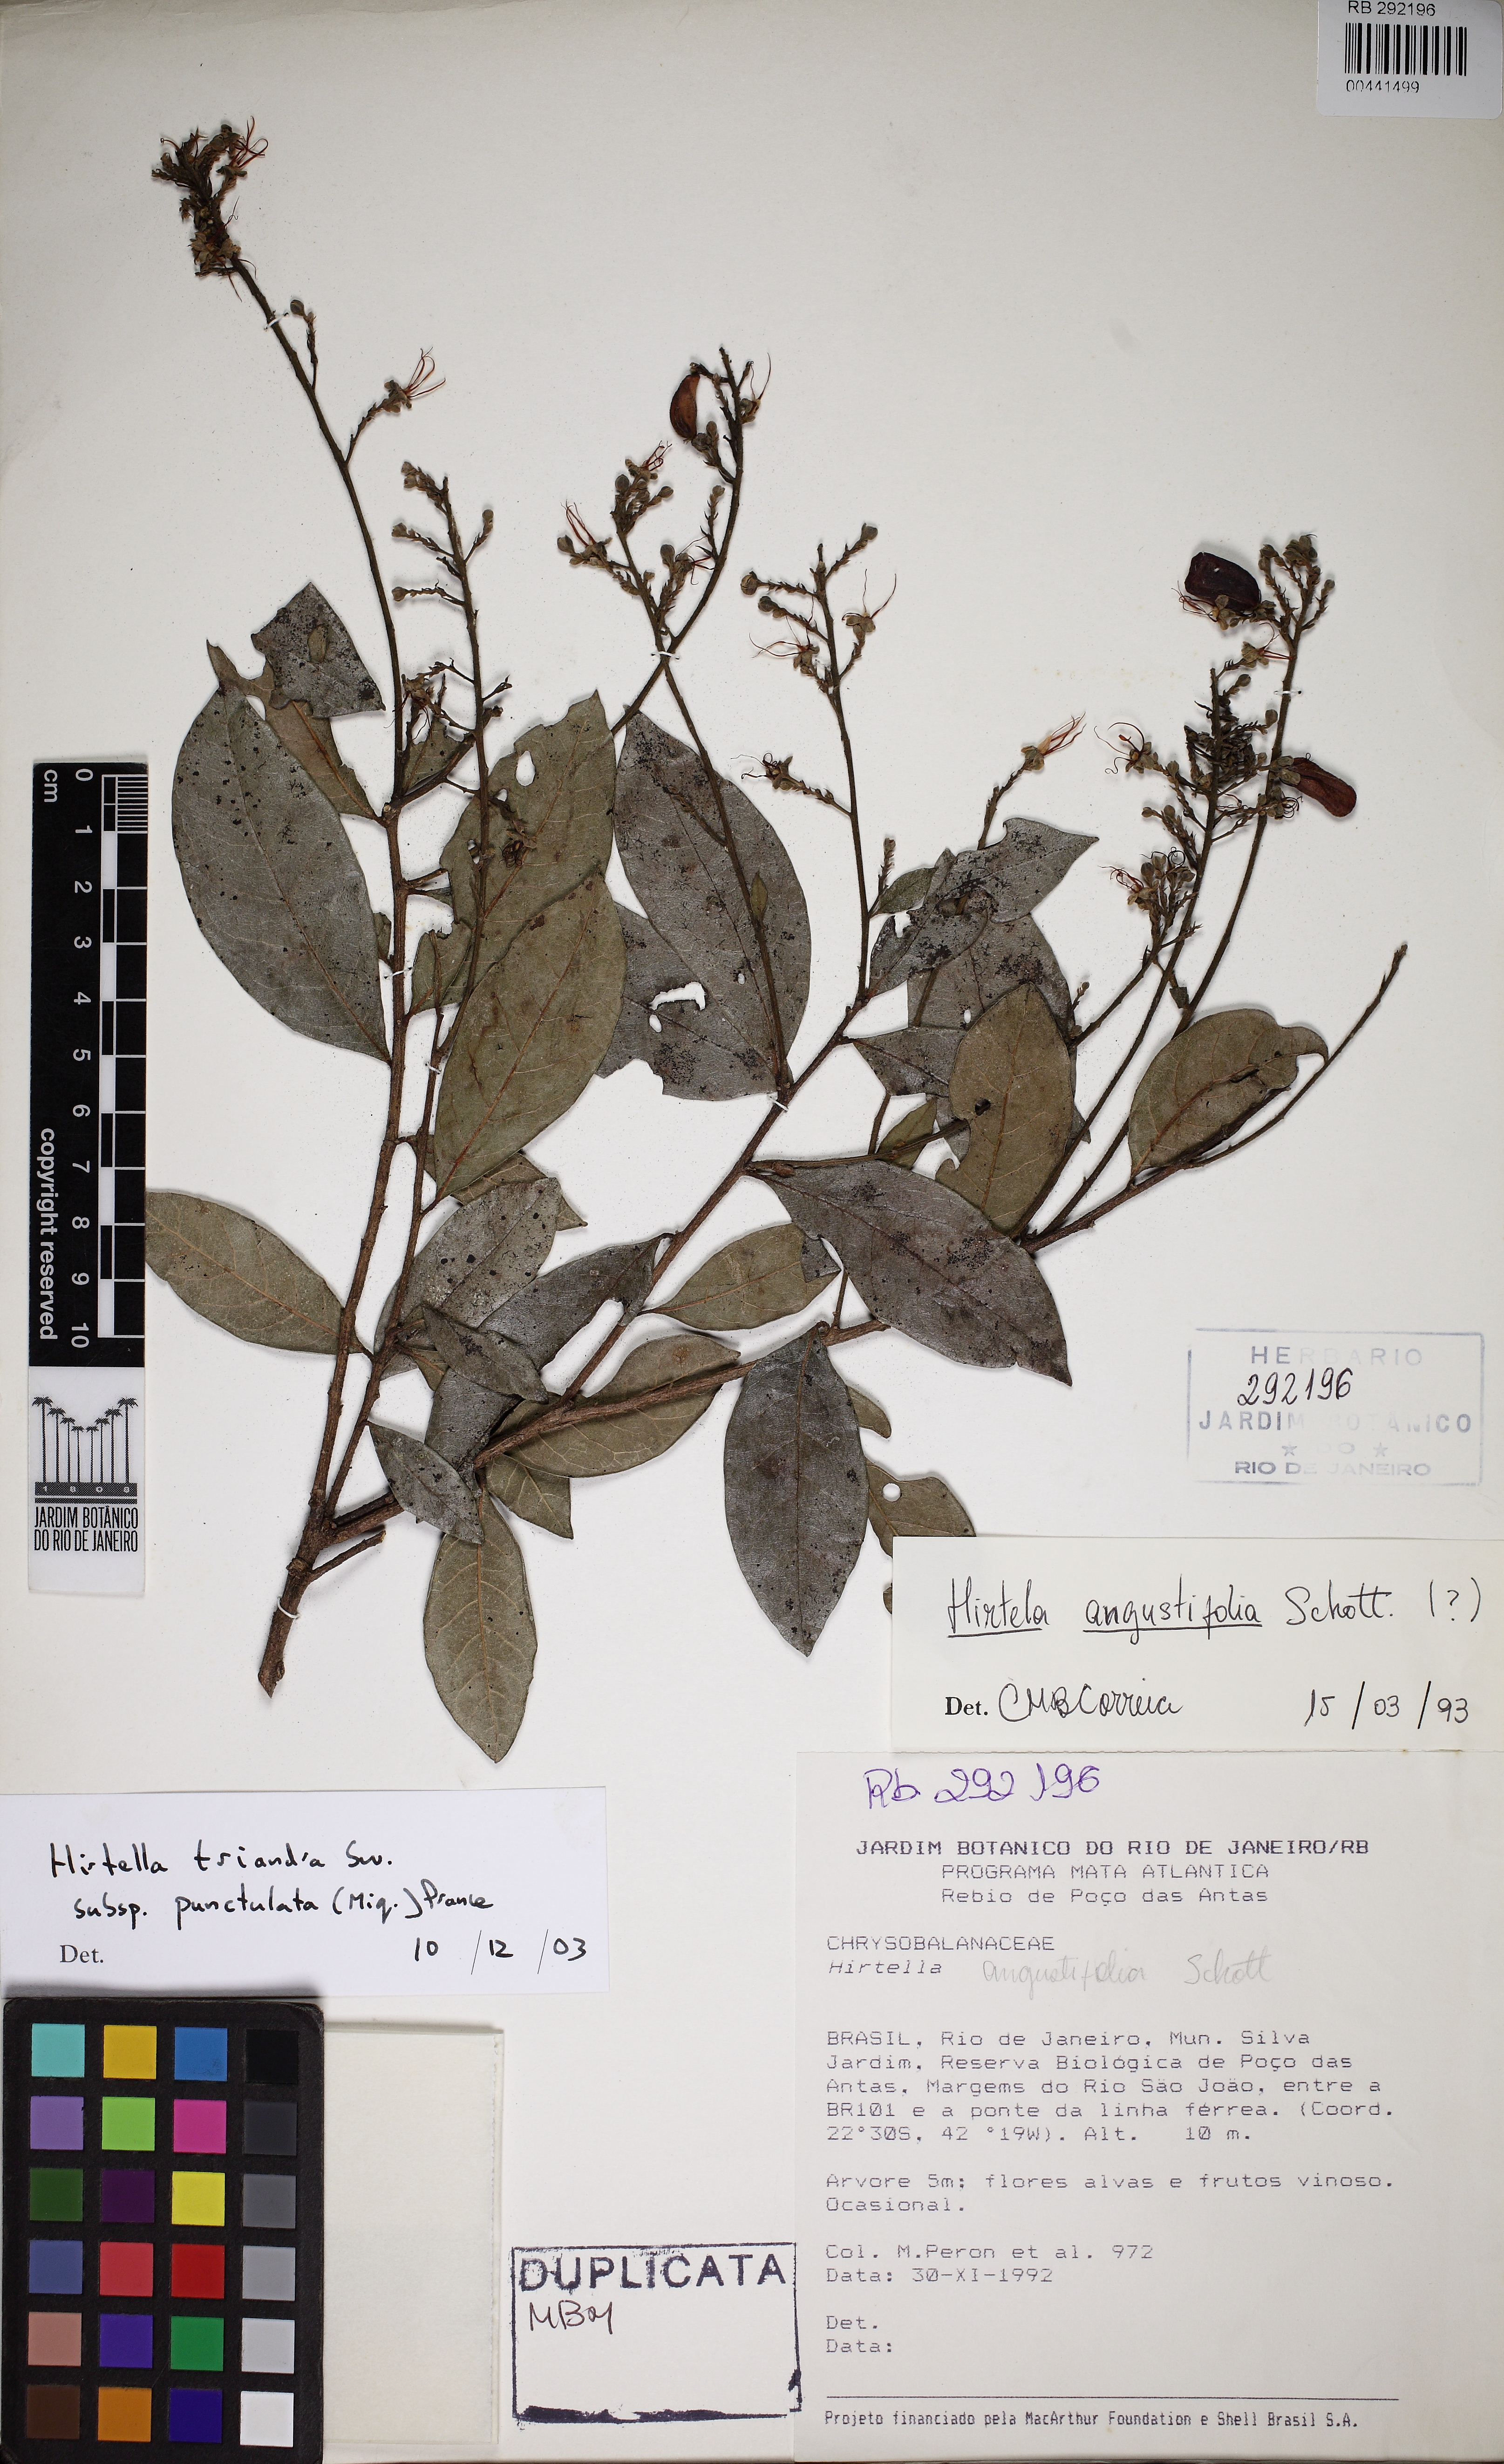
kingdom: Plantae
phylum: Tracheophyta
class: Magnoliopsida
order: Malpighiales
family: Chrysobalanaceae
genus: Hirtella
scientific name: Hirtella triandra
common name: Hairy plum
